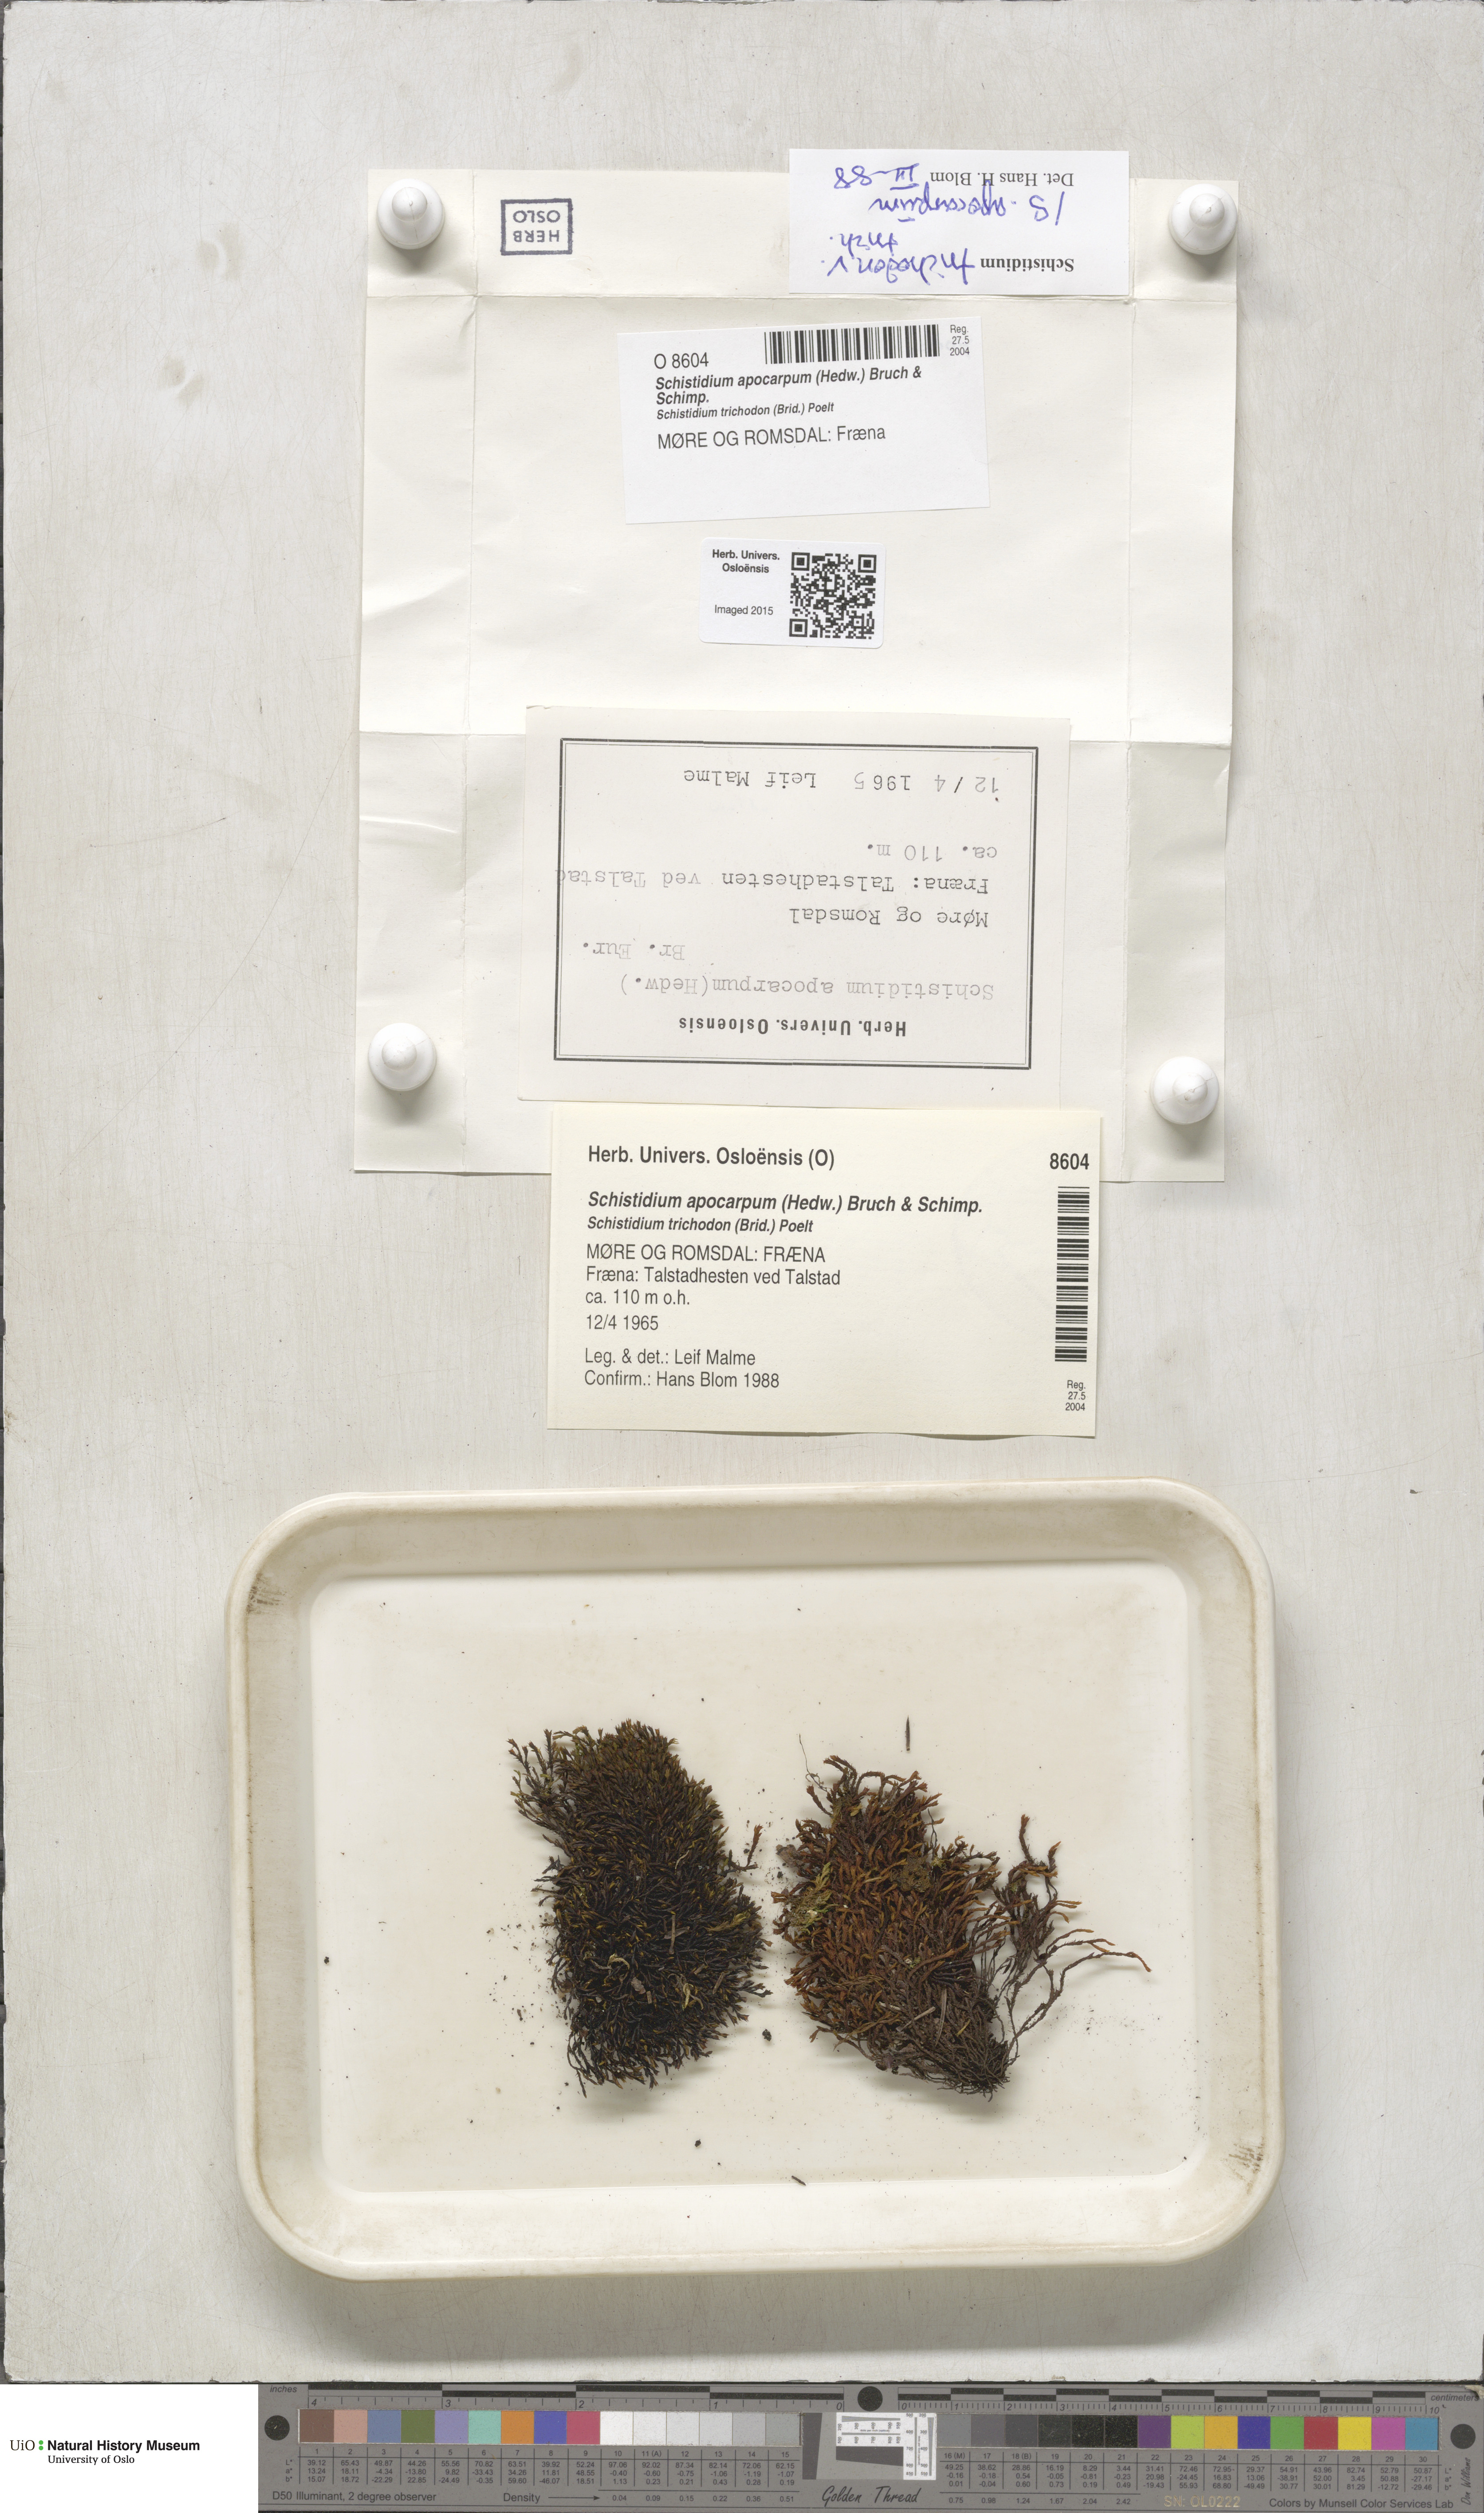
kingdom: Plantae
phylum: Bryophyta
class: Bryopsida
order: Grimmiales
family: Grimmiaceae
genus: Schistidium
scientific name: Schistidium apocarpum
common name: Radiate bloom moss
